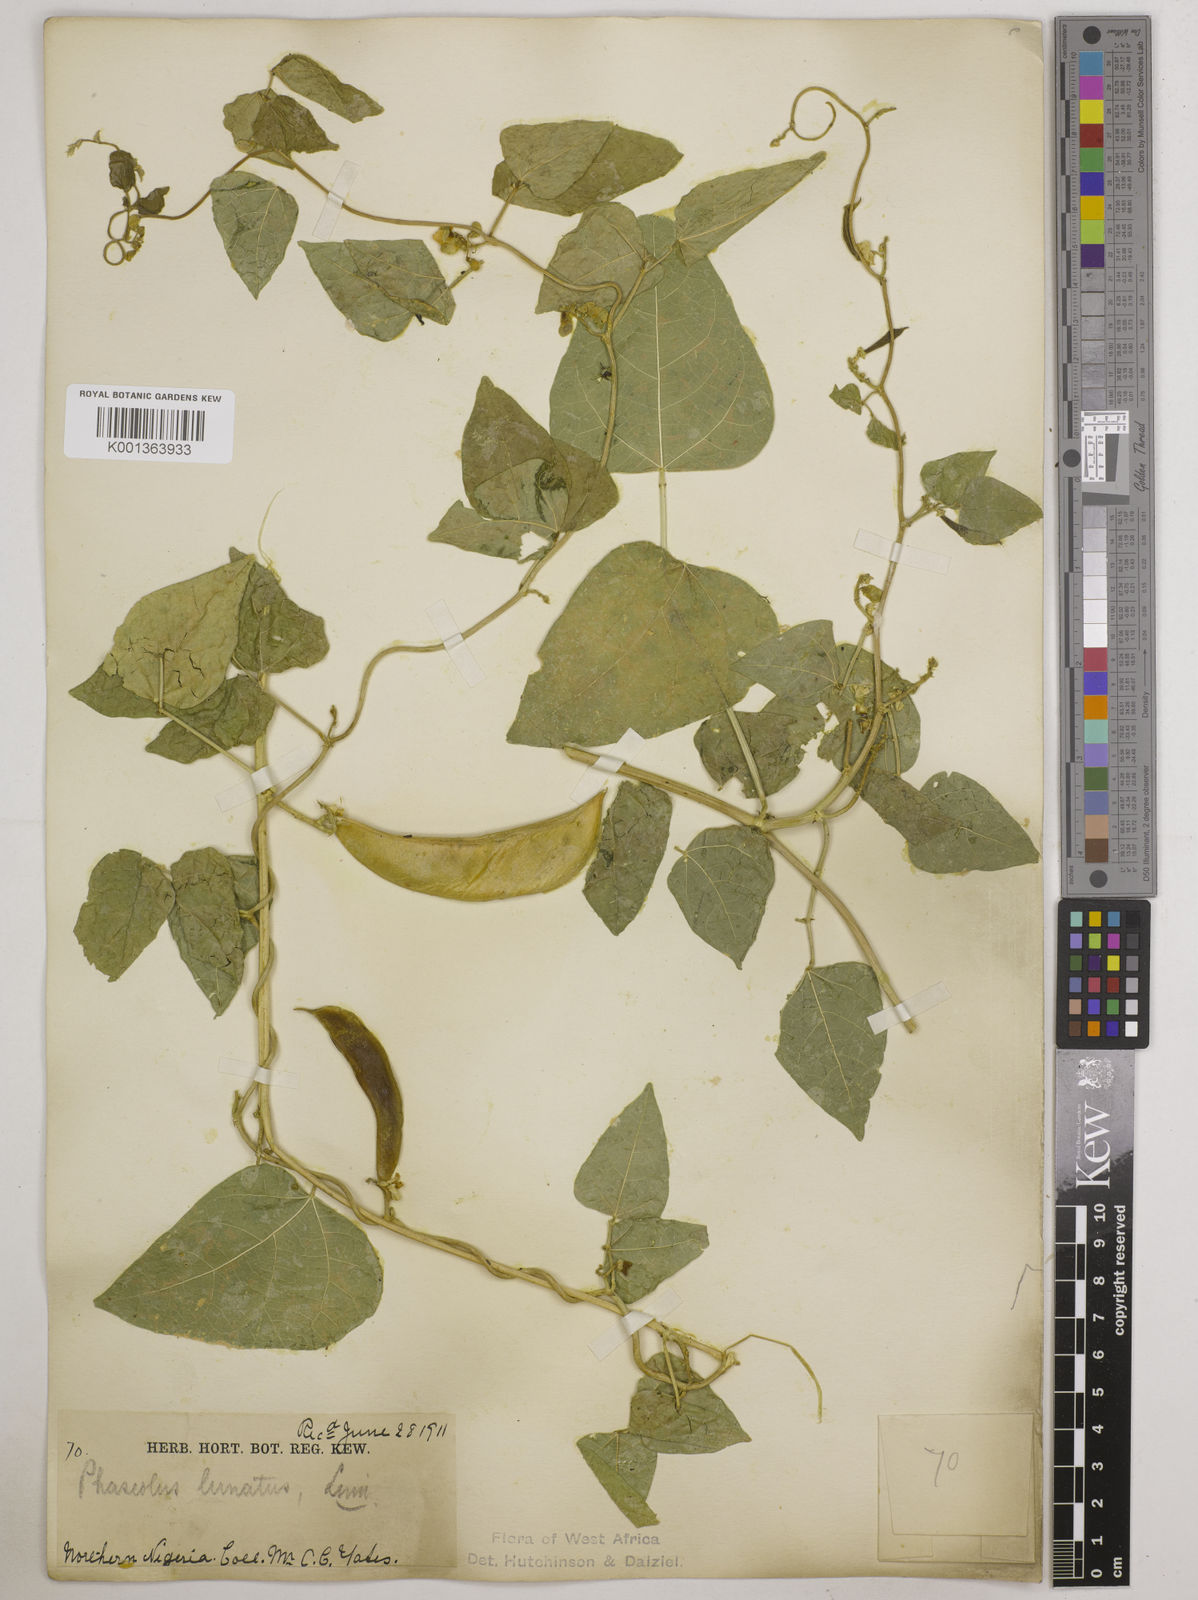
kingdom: Plantae
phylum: Tracheophyta
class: Magnoliopsida
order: Fabales
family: Fabaceae
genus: Phaseolus
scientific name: Phaseolus lunatus
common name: Sieva bean
